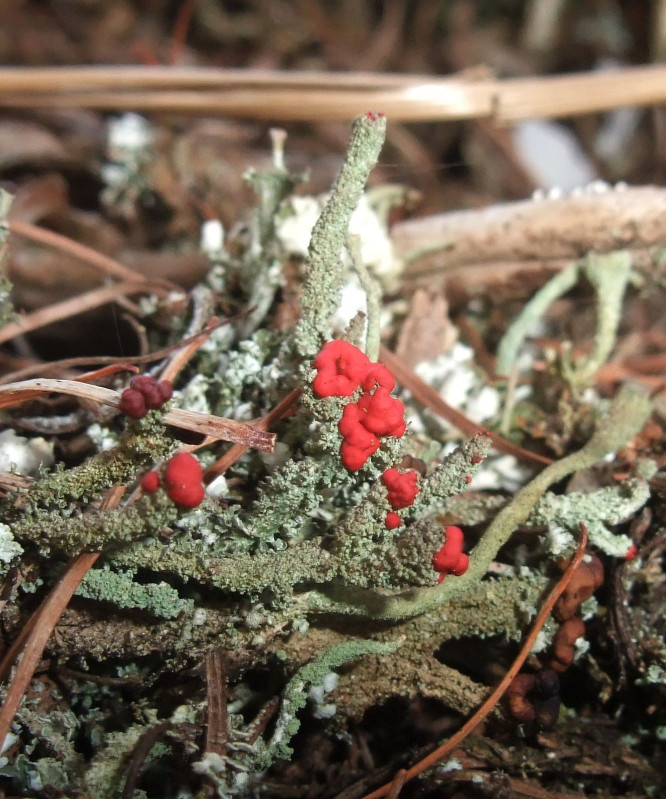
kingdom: Fungi
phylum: Ascomycota
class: Lecanoromycetes
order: Lecanorales
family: Cladoniaceae
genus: Cladonia
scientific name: Cladonia floerkeana
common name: lakrød bægerlav
